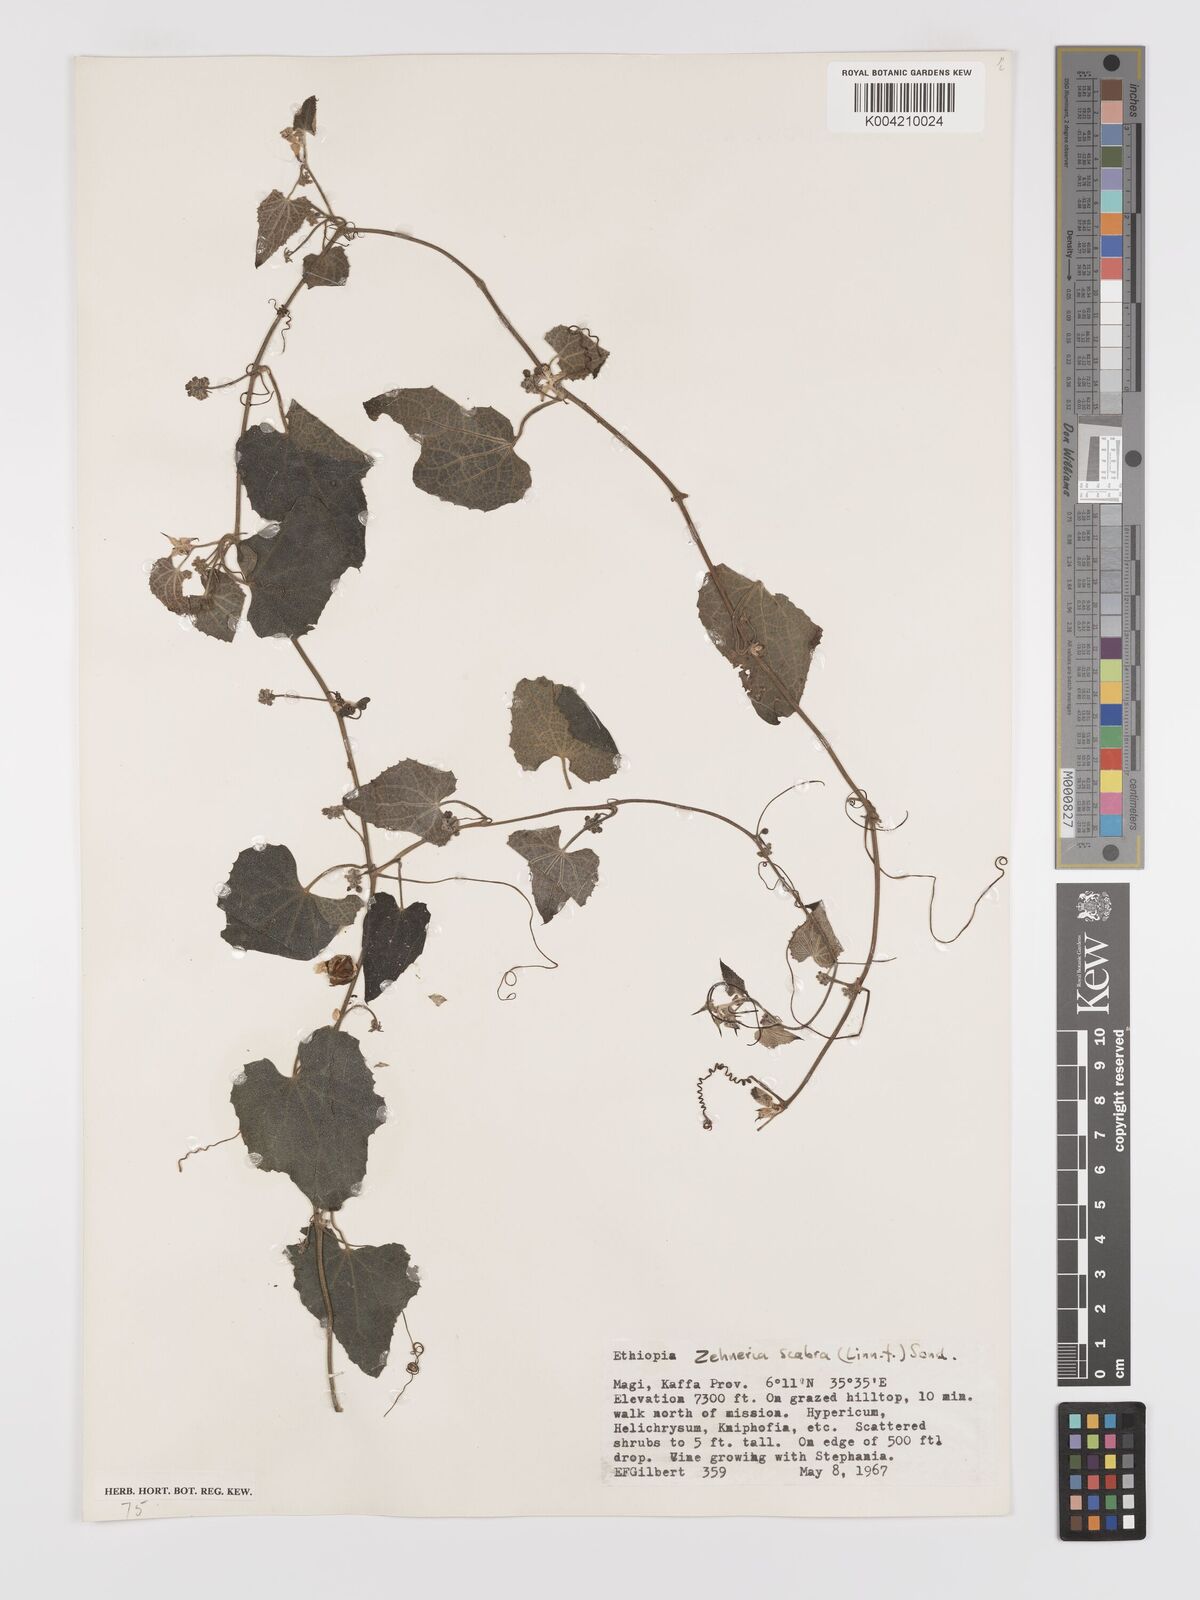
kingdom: Plantae
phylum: Tracheophyta
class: Magnoliopsida
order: Cucurbitales
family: Cucurbitaceae
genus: Zehneria
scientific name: Zehneria scabra
